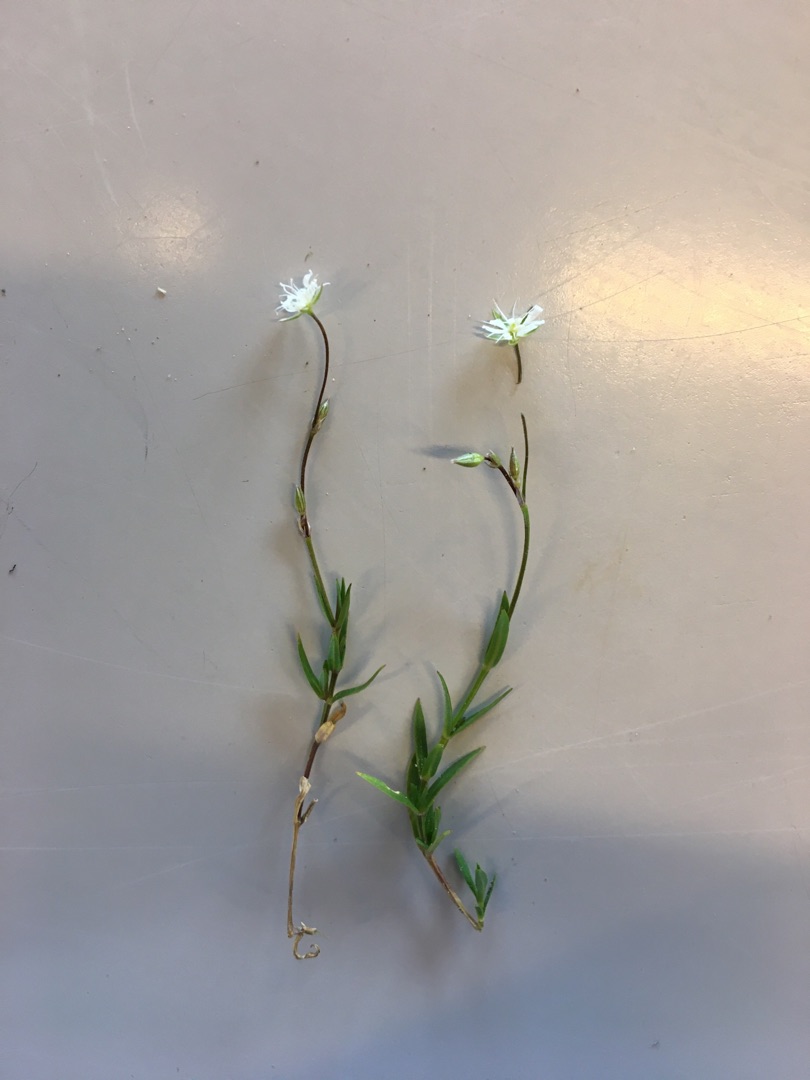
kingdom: Plantae
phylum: Tracheophyta
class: Magnoliopsida
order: Caryophyllales
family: Caryophyllaceae
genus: Stellaria
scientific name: Stellaria graminea
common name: Græsbladet fladstjerne
